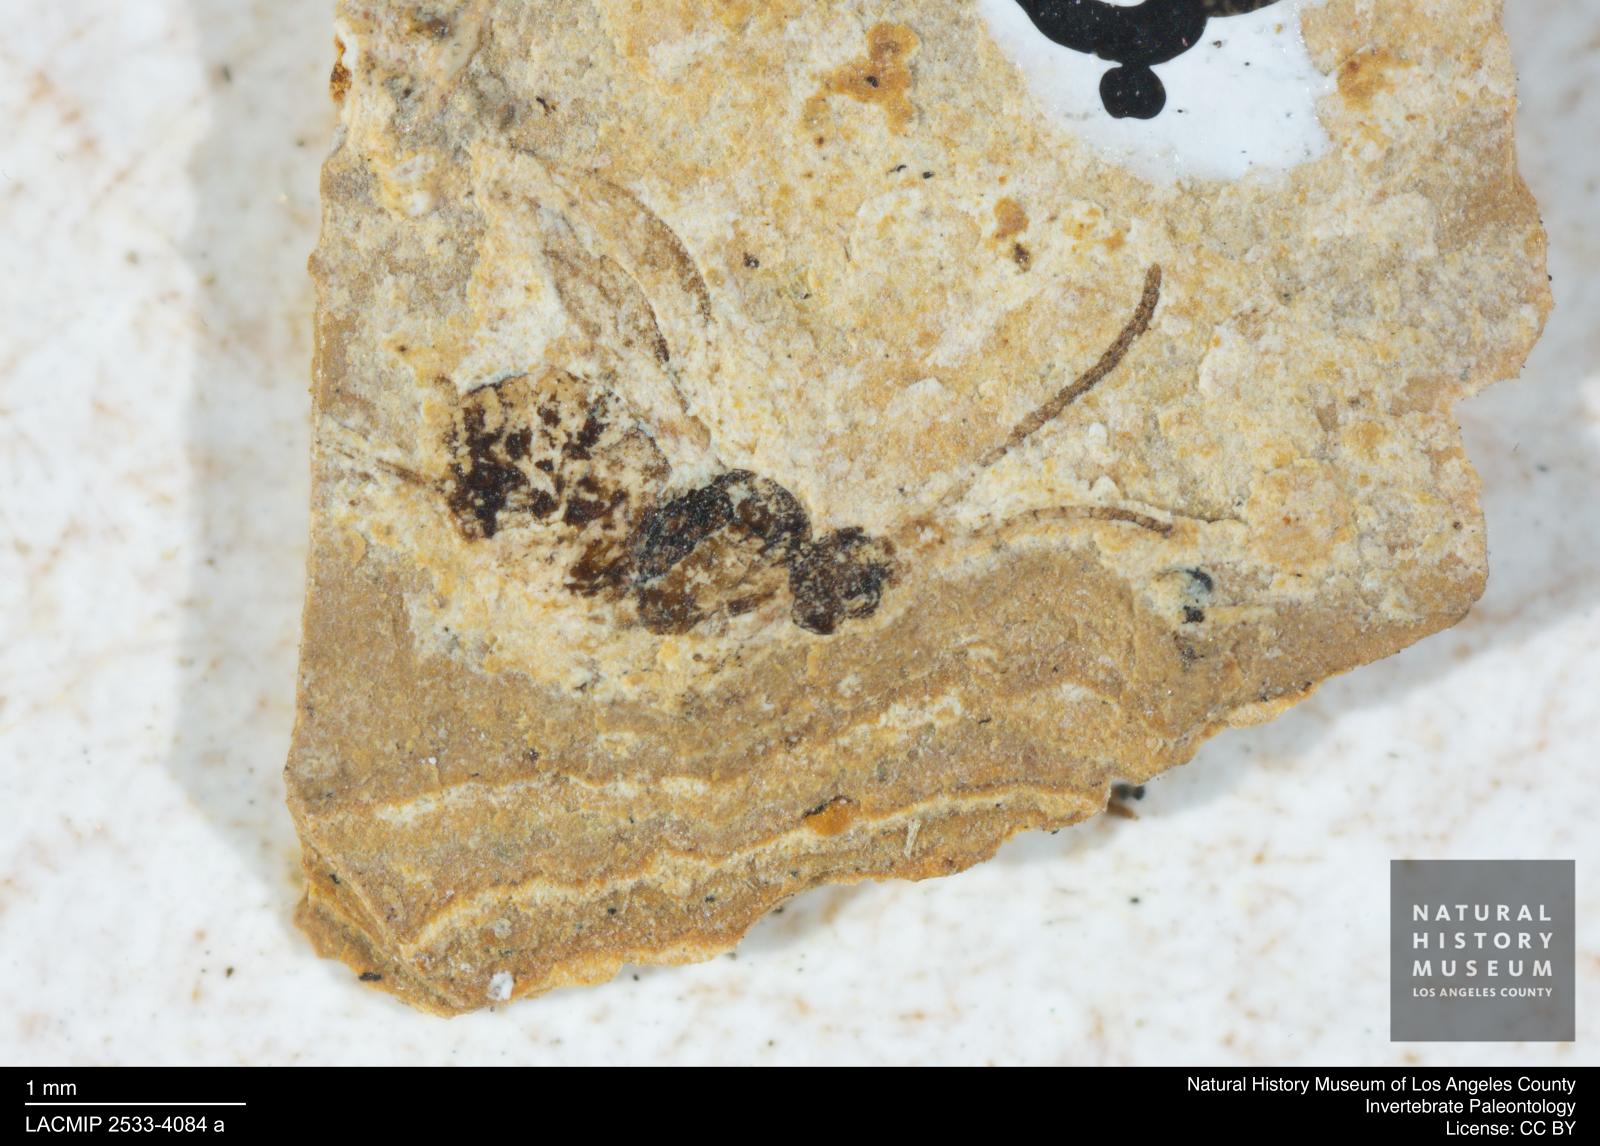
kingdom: Animalia
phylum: Arthropoda
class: Insecta
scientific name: Insecta
